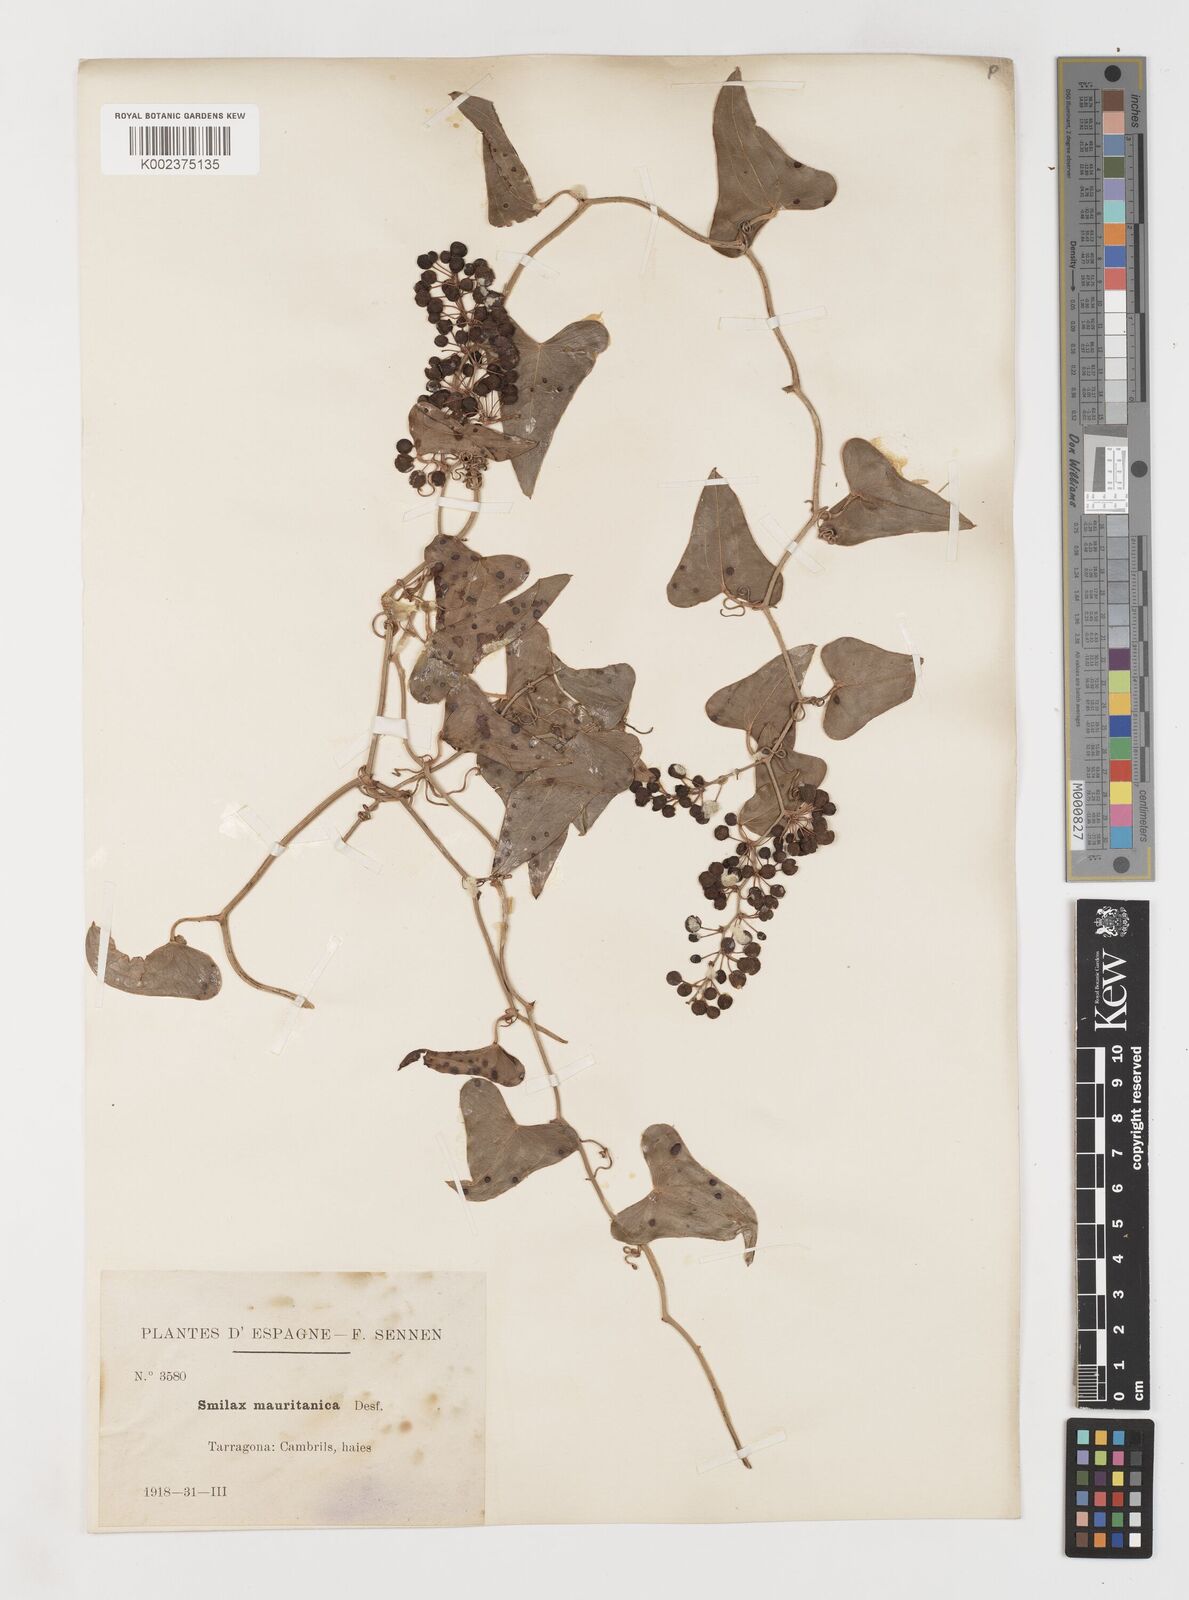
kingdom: Plantae
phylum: Tracheophyta
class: Liliopsida
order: Liliales
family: Smilacaceae
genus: Smilax
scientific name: Smilax aspera
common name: Common smilax
